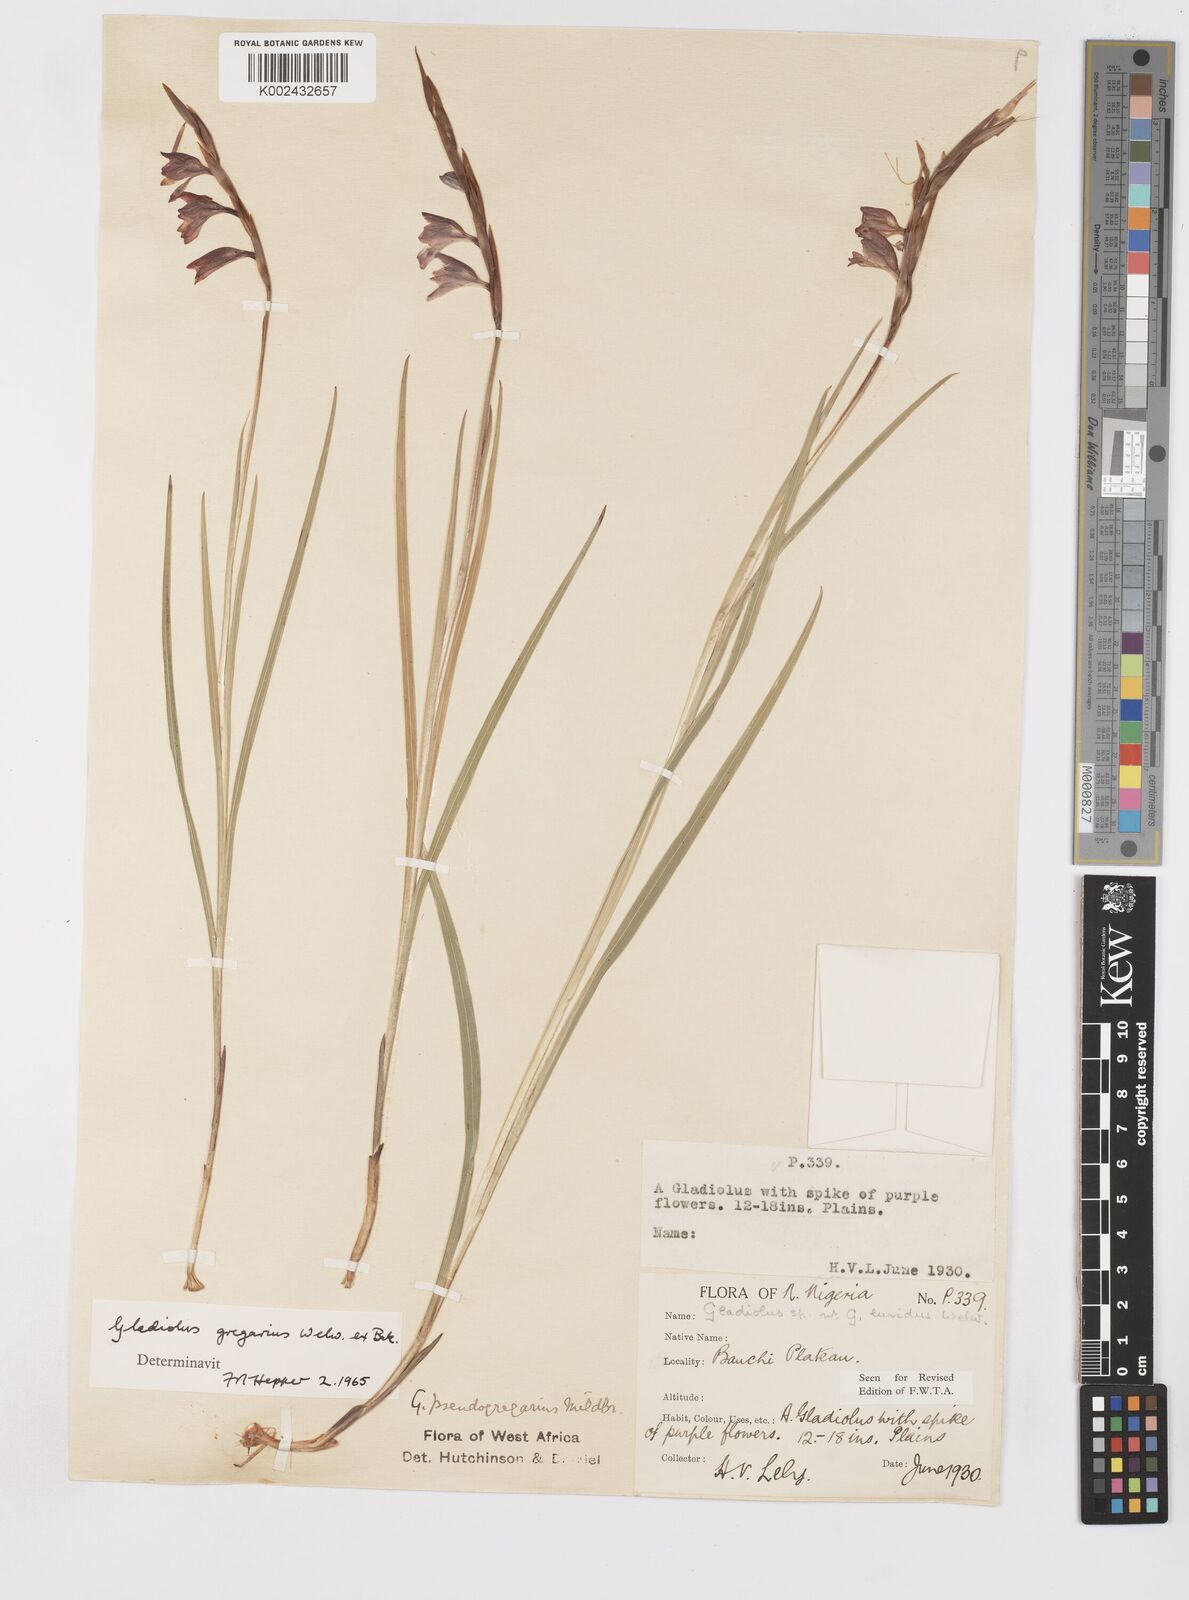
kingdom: Plantae
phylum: Tracheophyta
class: Liliopsida
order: Asparagales
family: Iridaceae
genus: Gladiolus
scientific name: Gladiolus gregarius
